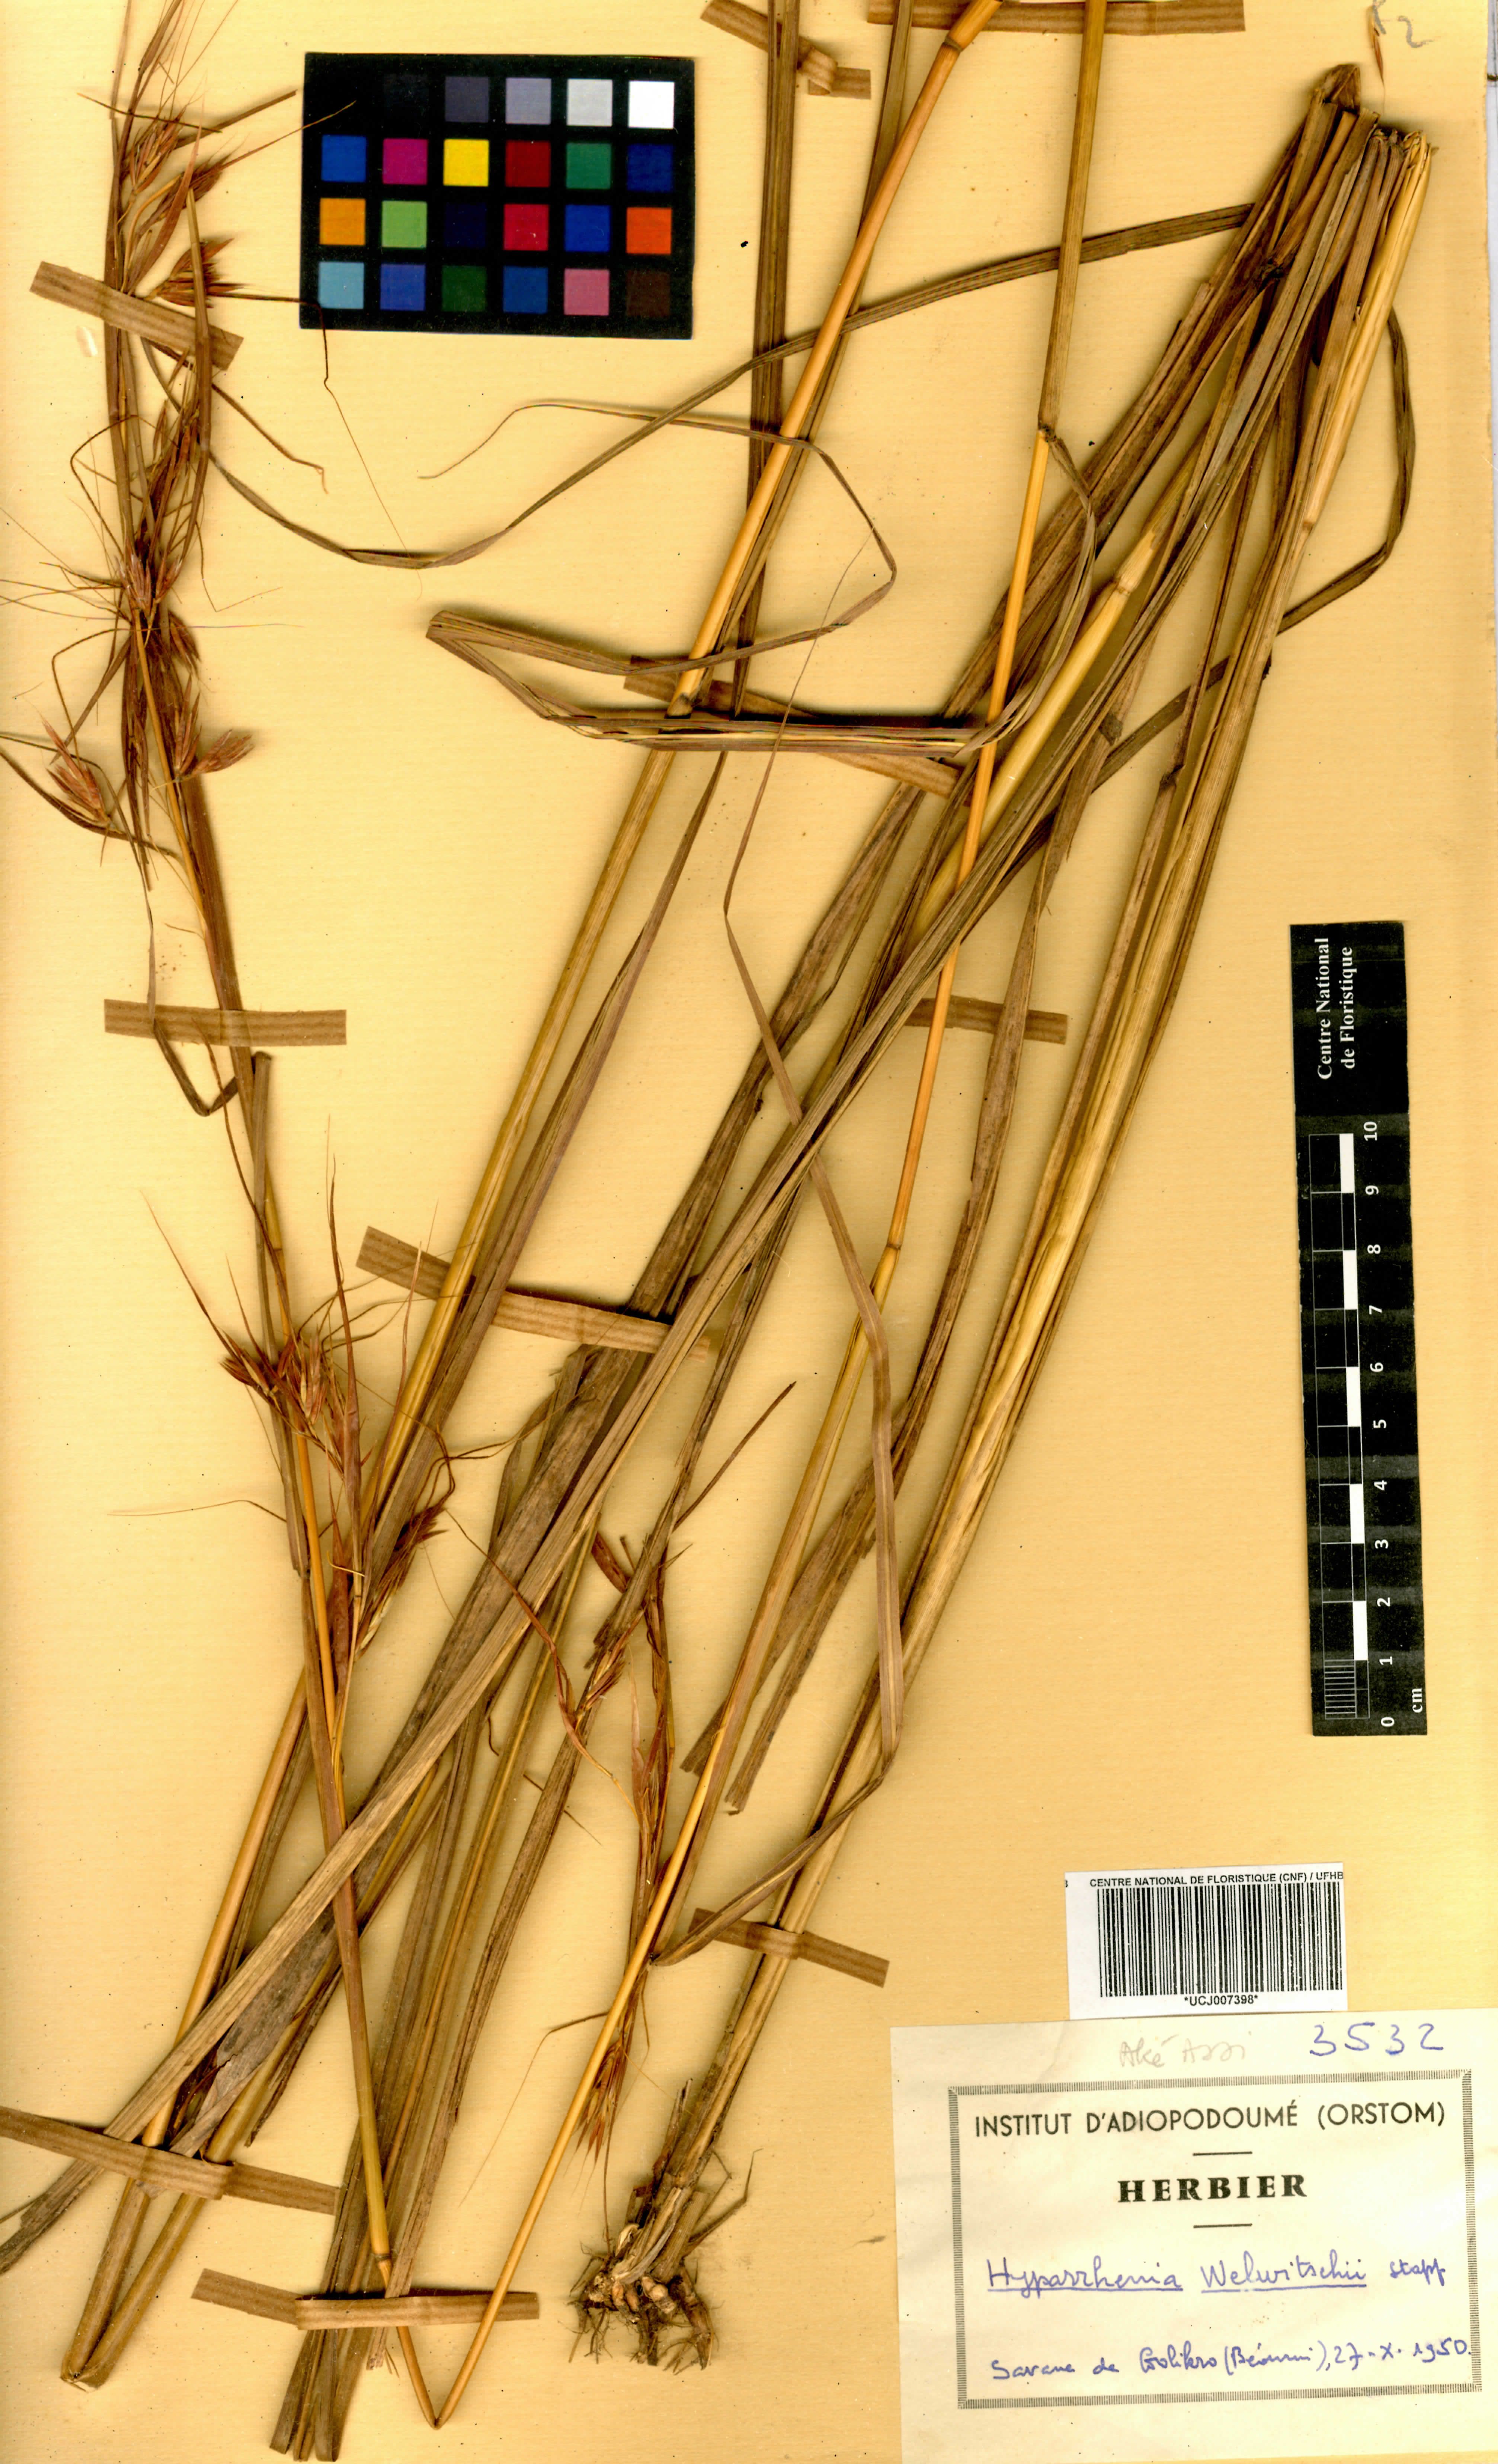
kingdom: Plantae
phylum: Tracheophyta
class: Liliopsida
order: Poales
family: Poaceae
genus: Hyparrhenia
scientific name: Hyparrhenia welwitschii
